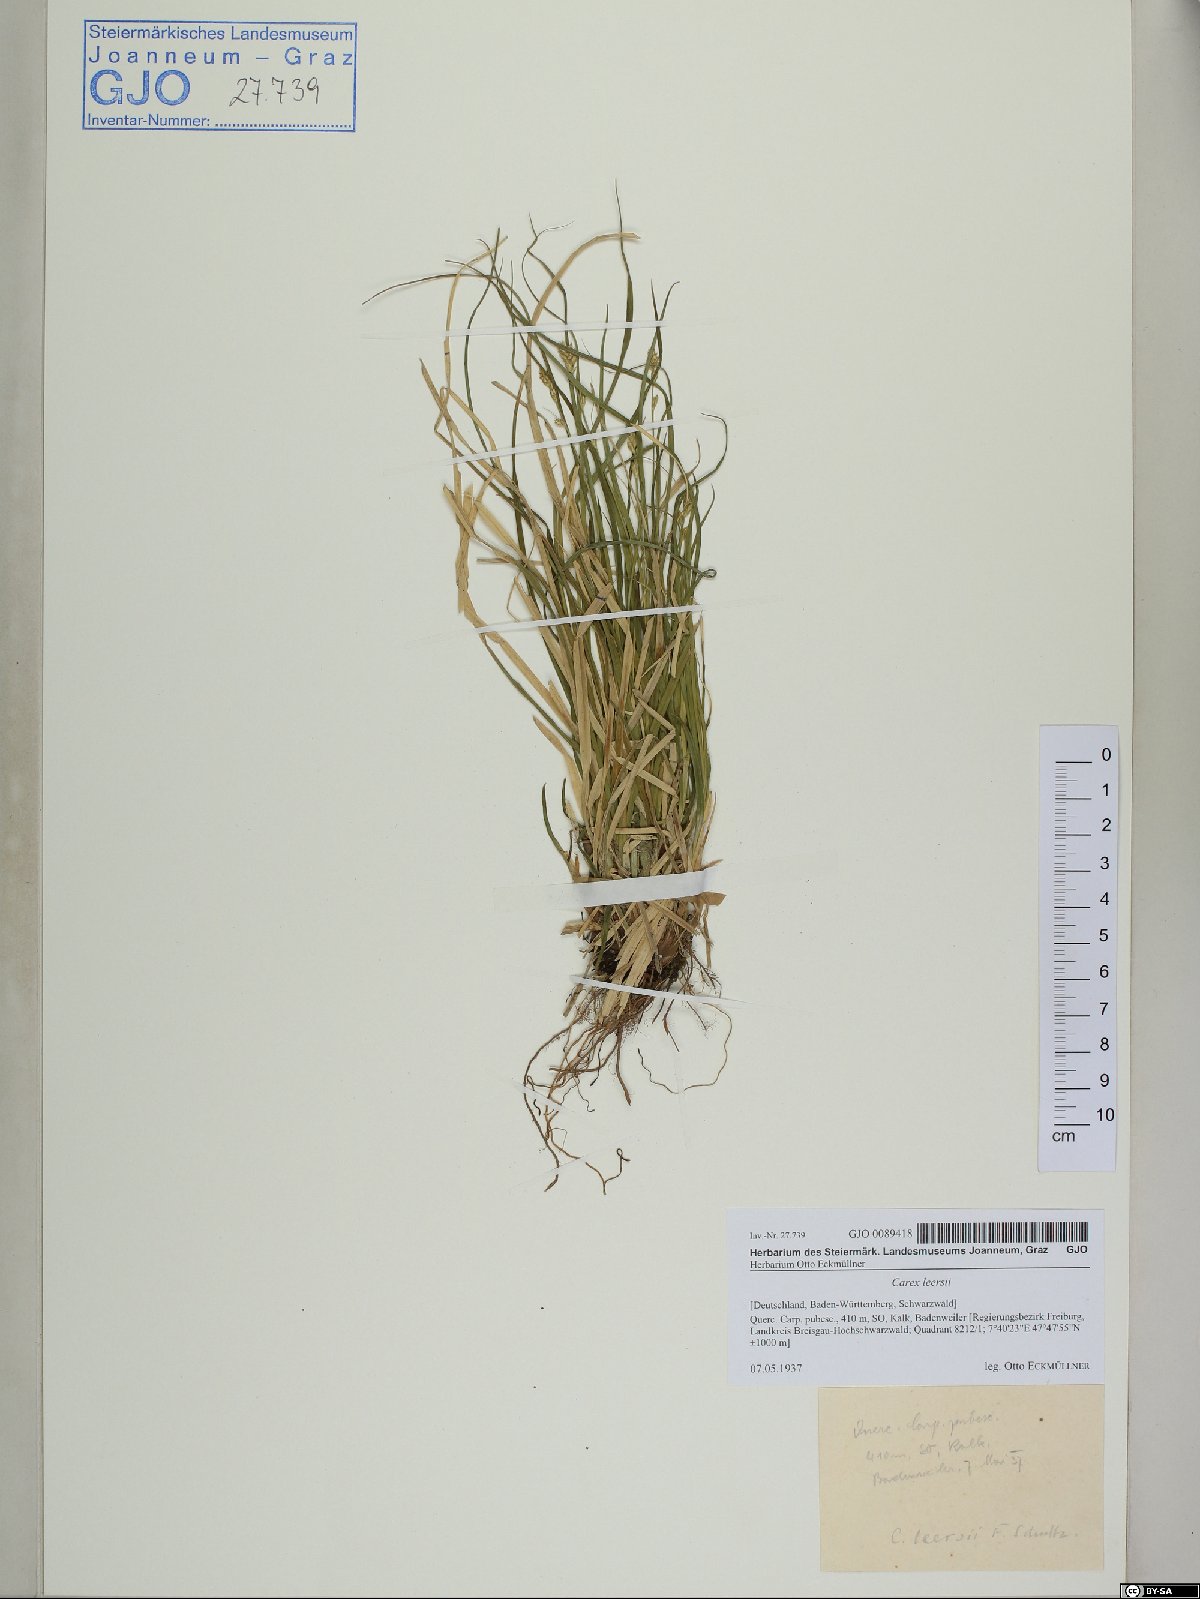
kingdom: Plantae
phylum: Tracheophyta
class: Liliopsida
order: Poales
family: Cyperaceae
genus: Carex
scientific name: Carex leersii
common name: Leers' sedge
